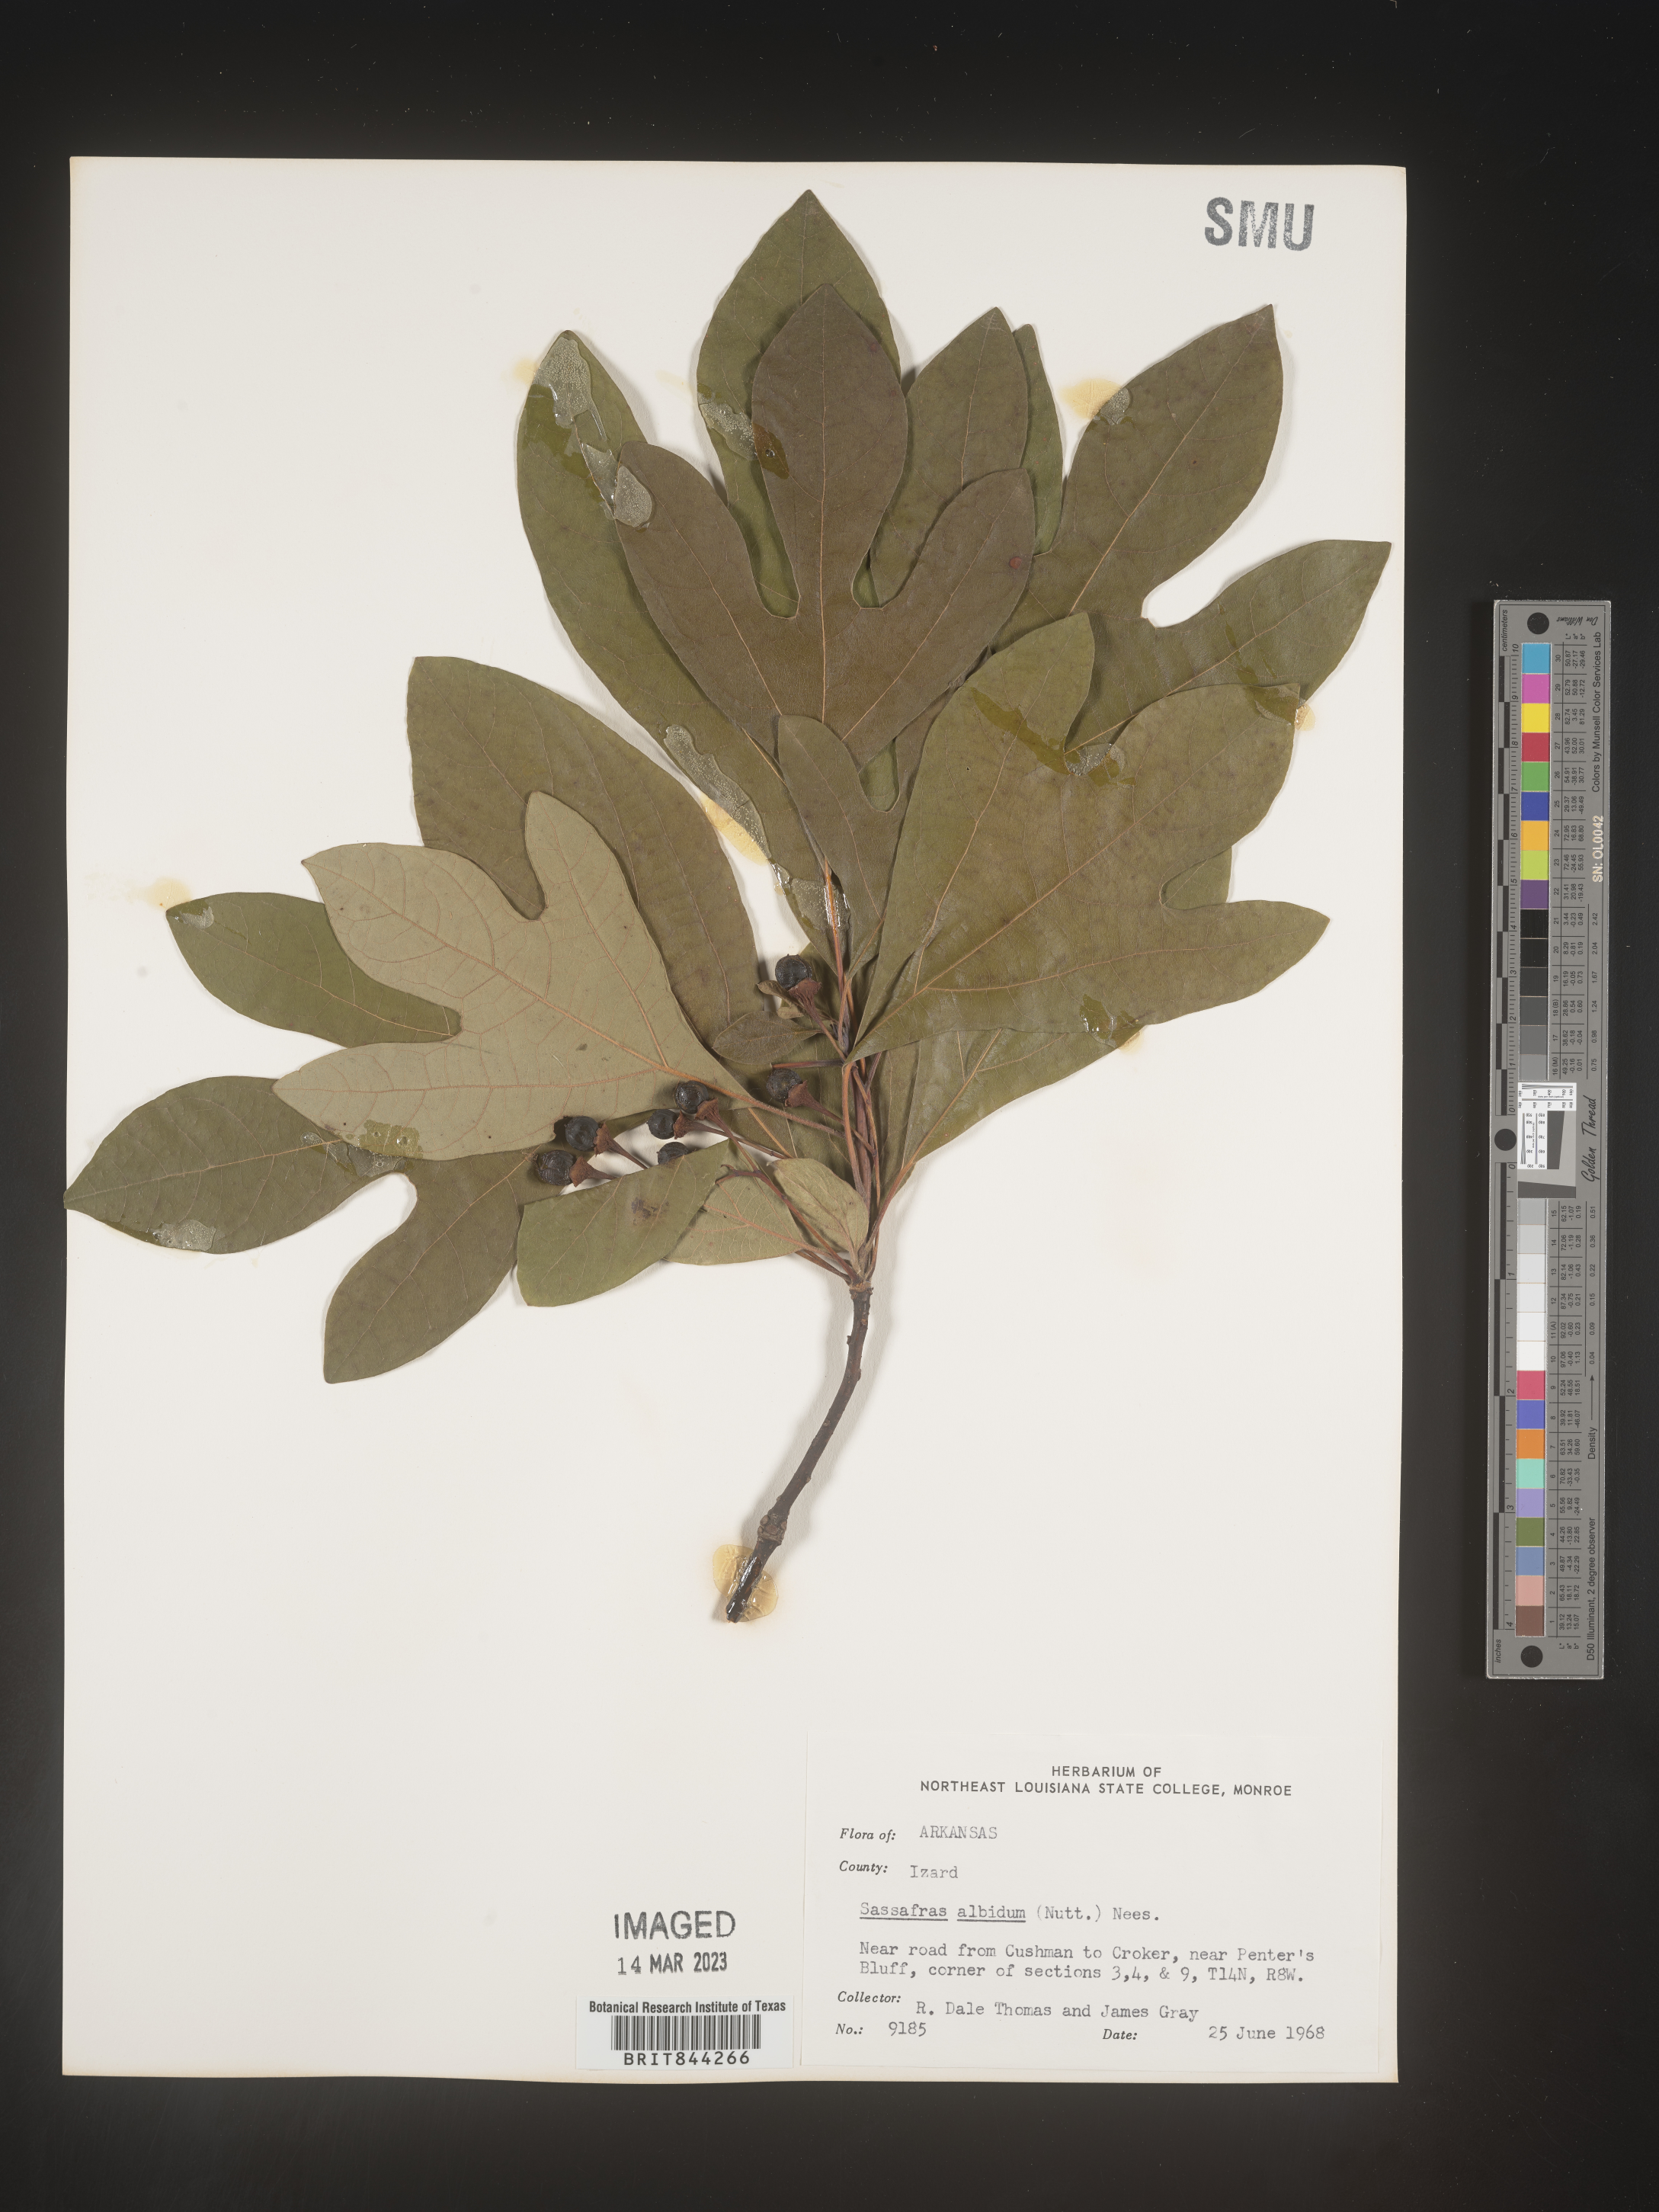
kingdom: Plantae
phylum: Tracheophyta
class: Magnoliopsida
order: Laurales
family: Lauraceae
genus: Sassafras
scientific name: Sassafras albidum
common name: Sassafras
